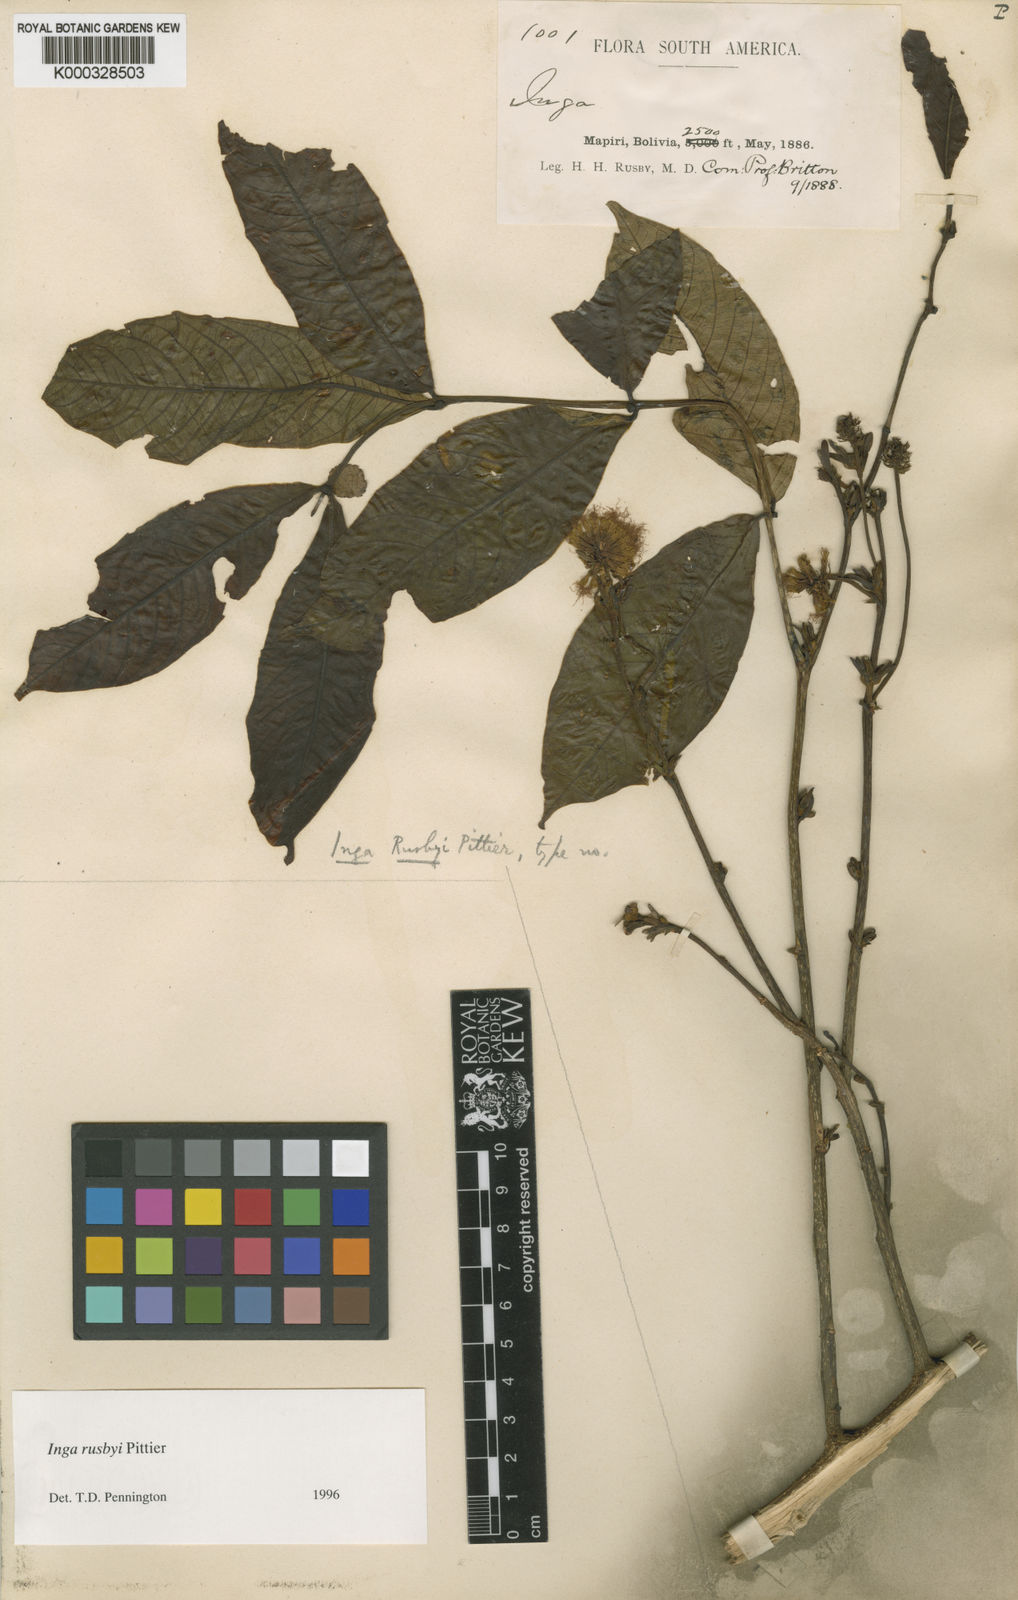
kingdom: Plantae
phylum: Tracheophyta
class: Magnoliopsida
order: Fabales
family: Fabaceae
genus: Inga
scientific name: Inga rusbyi
